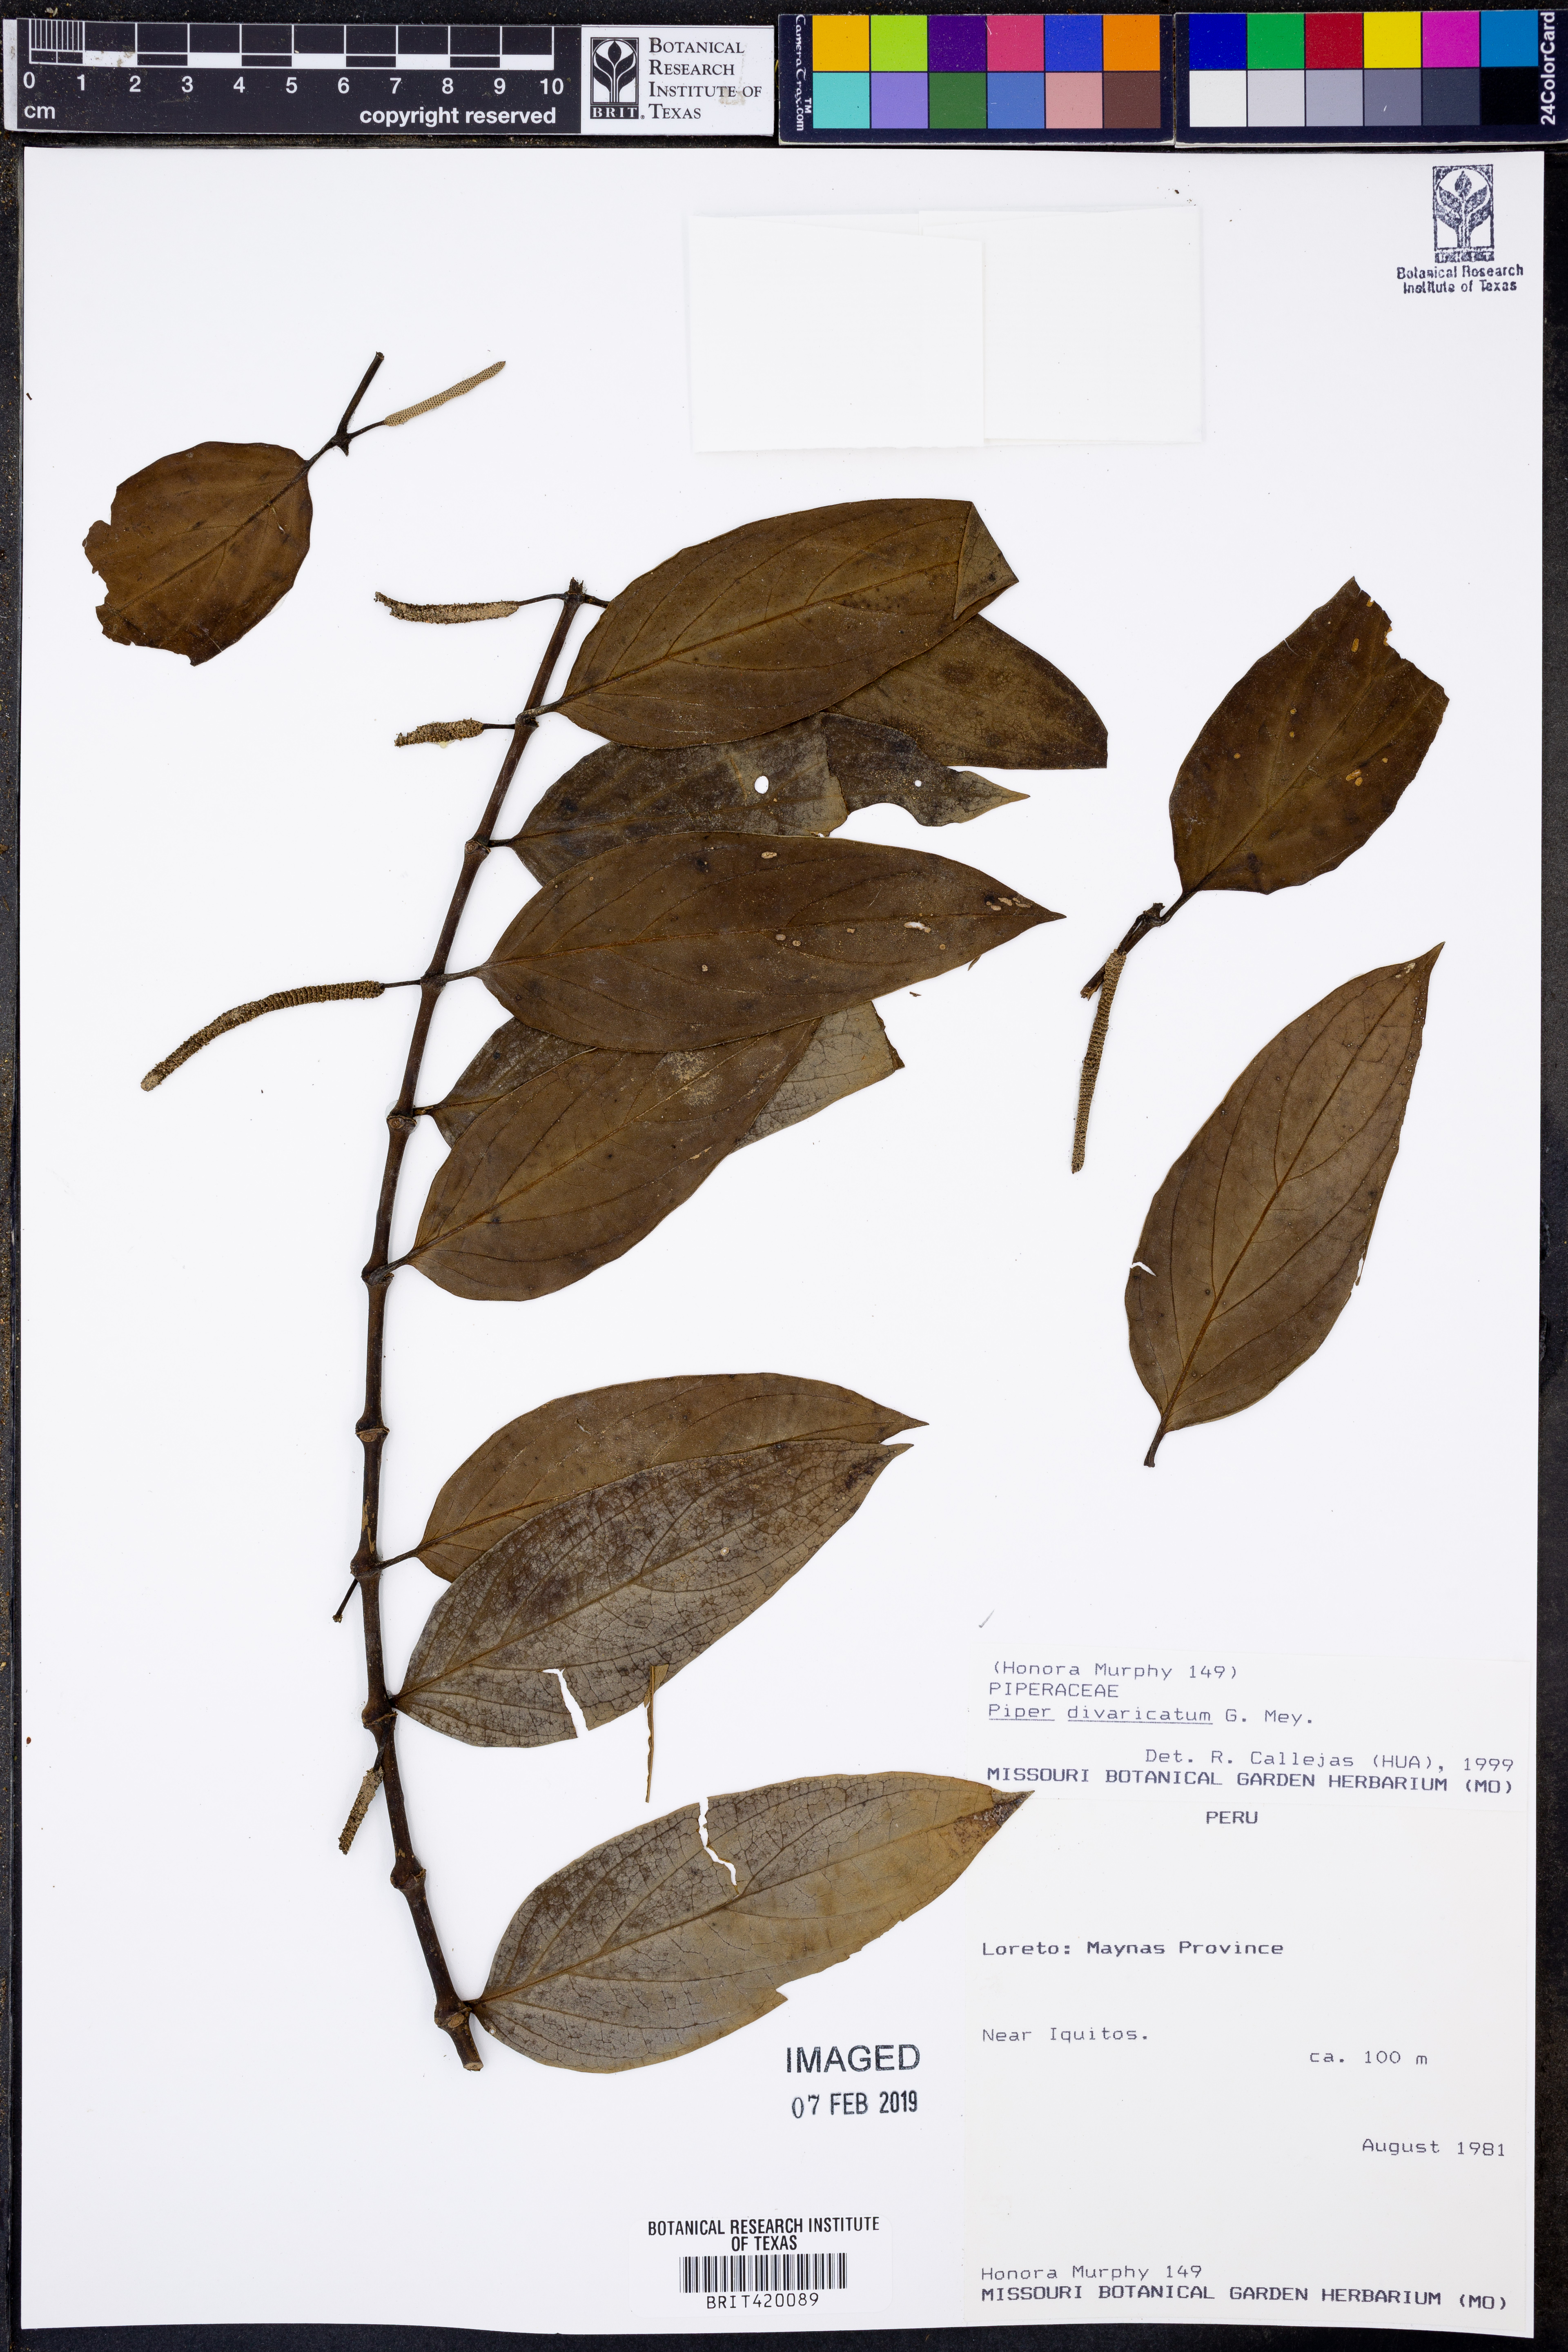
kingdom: Plantae
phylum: Tracheophyta
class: Magnoliopsida
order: Piperales
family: Piperaceae
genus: Piper
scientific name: Piper divaricatum
